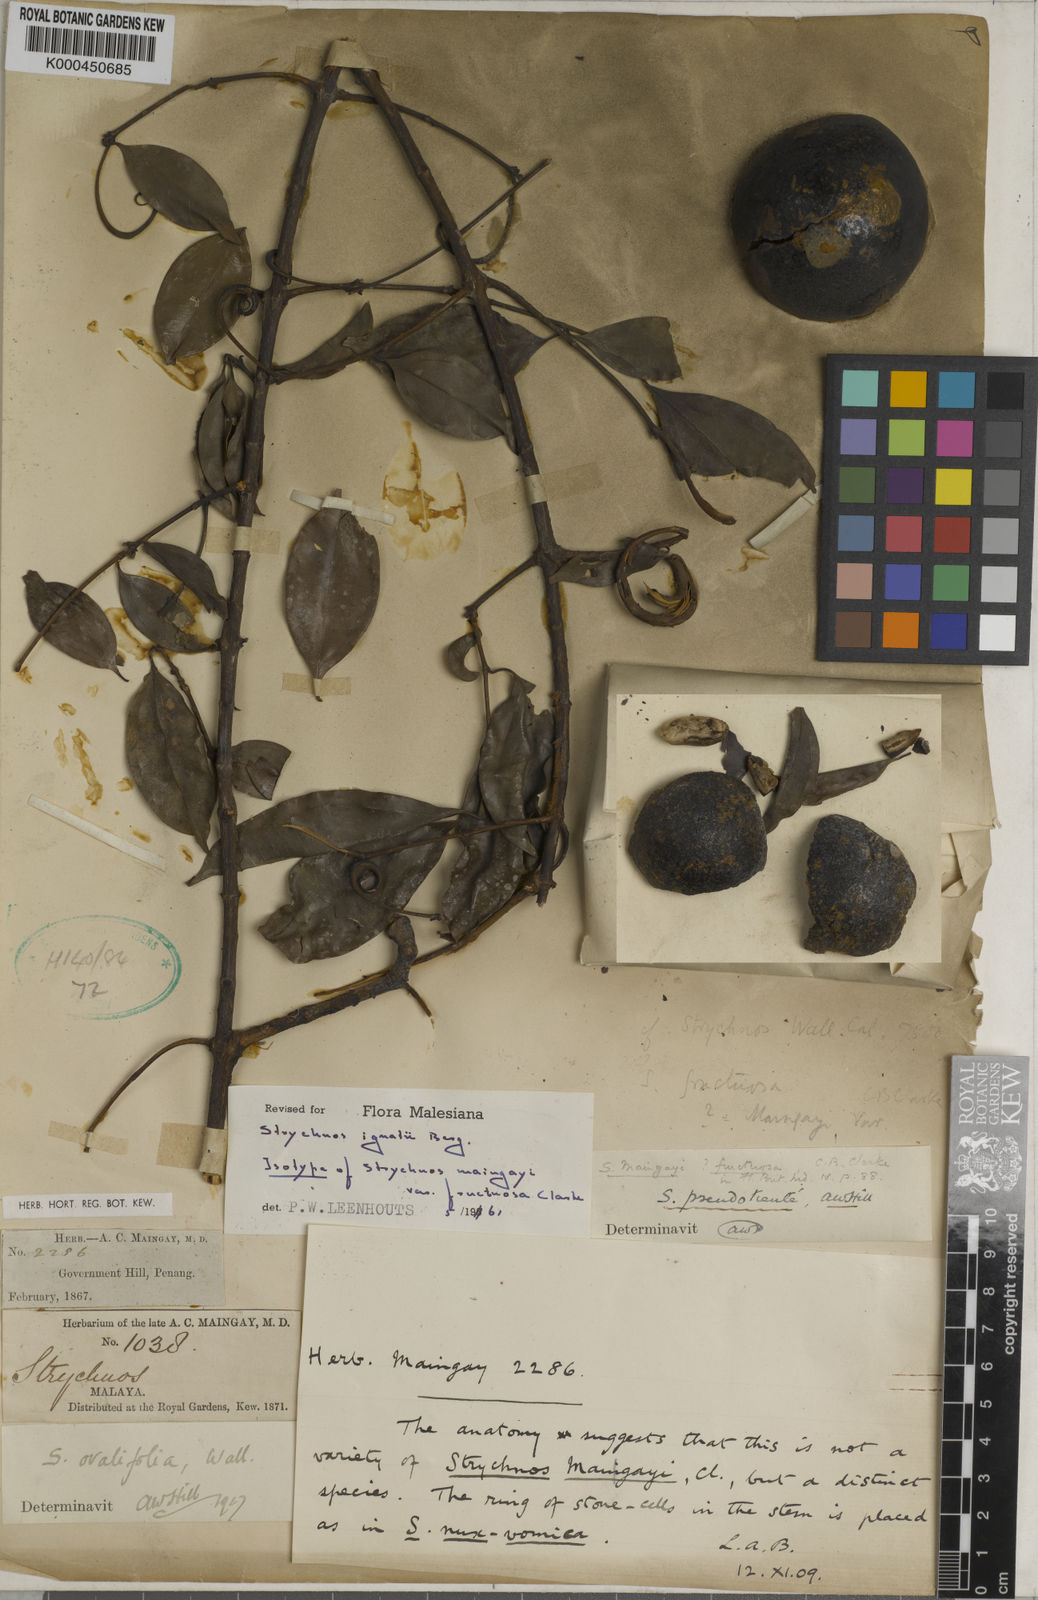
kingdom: Plantae
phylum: Tracheophyta
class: Magnoliopsida
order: Gentianales
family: Loganiaceae
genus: Strychnos
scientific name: Strychnos ignatii
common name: Ignatius-bean
